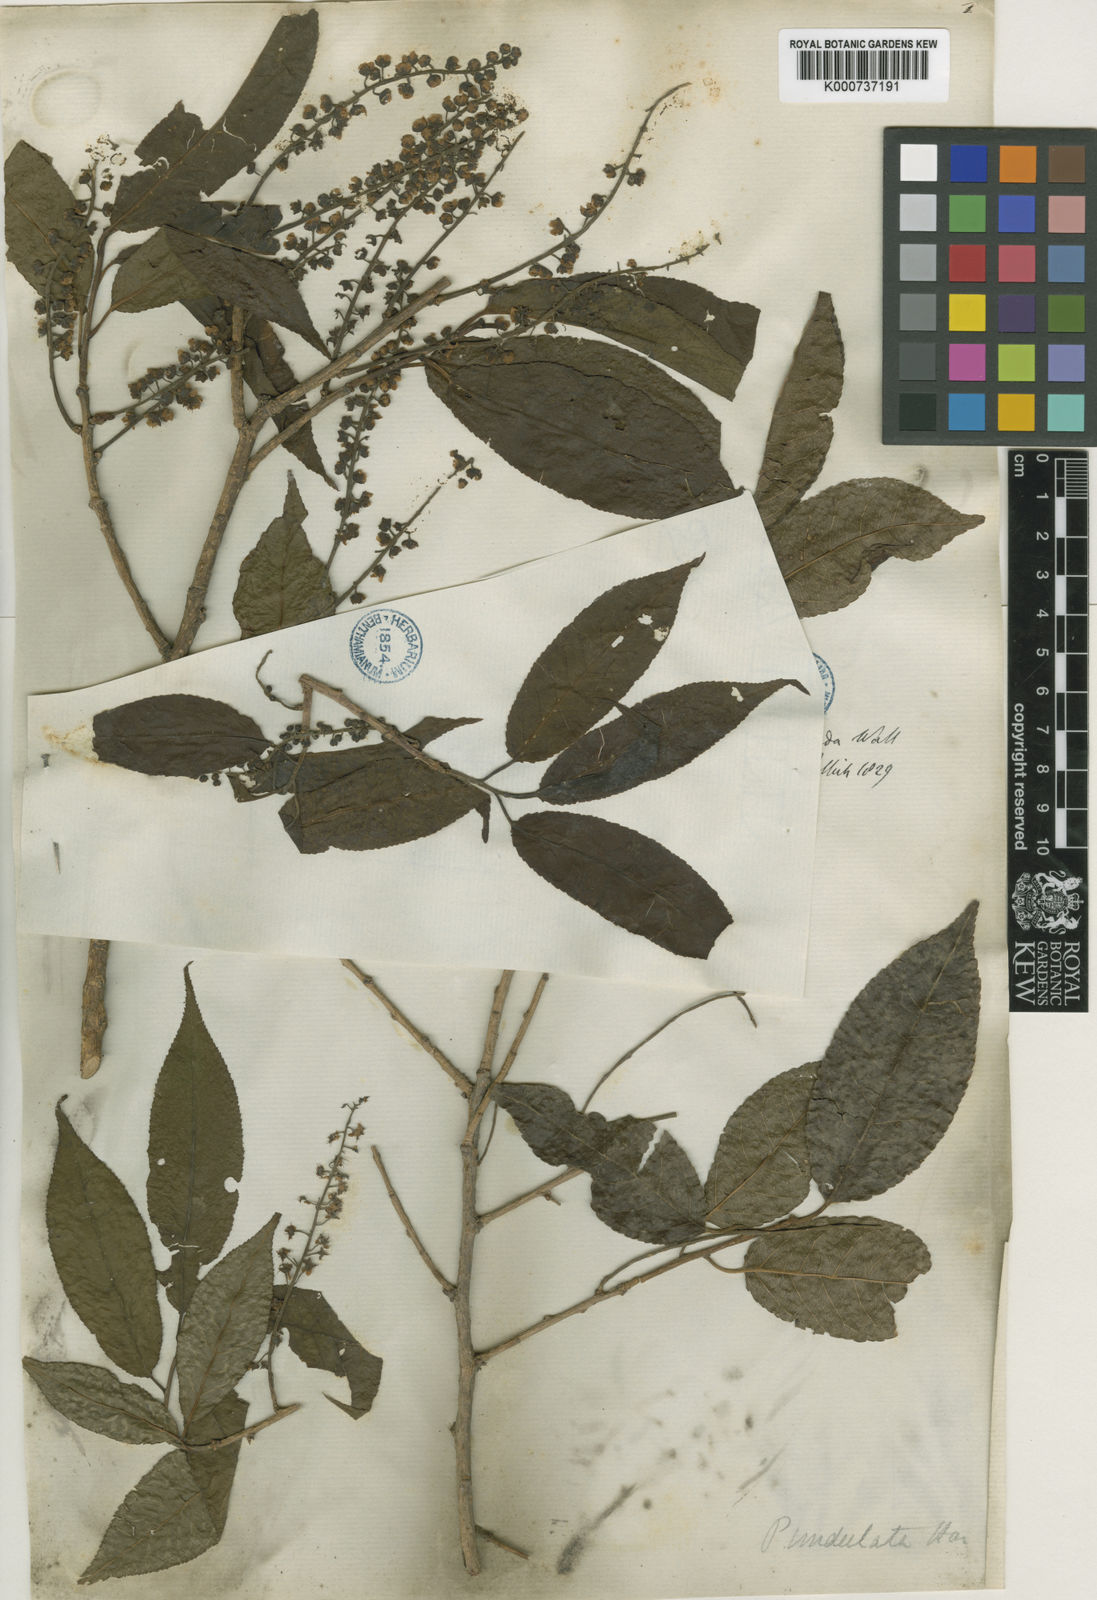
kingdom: Plantae
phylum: Tracheophyta
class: Magnoliopsida
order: Rosales
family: Rosaceae
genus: Prunus
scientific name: Prunus
